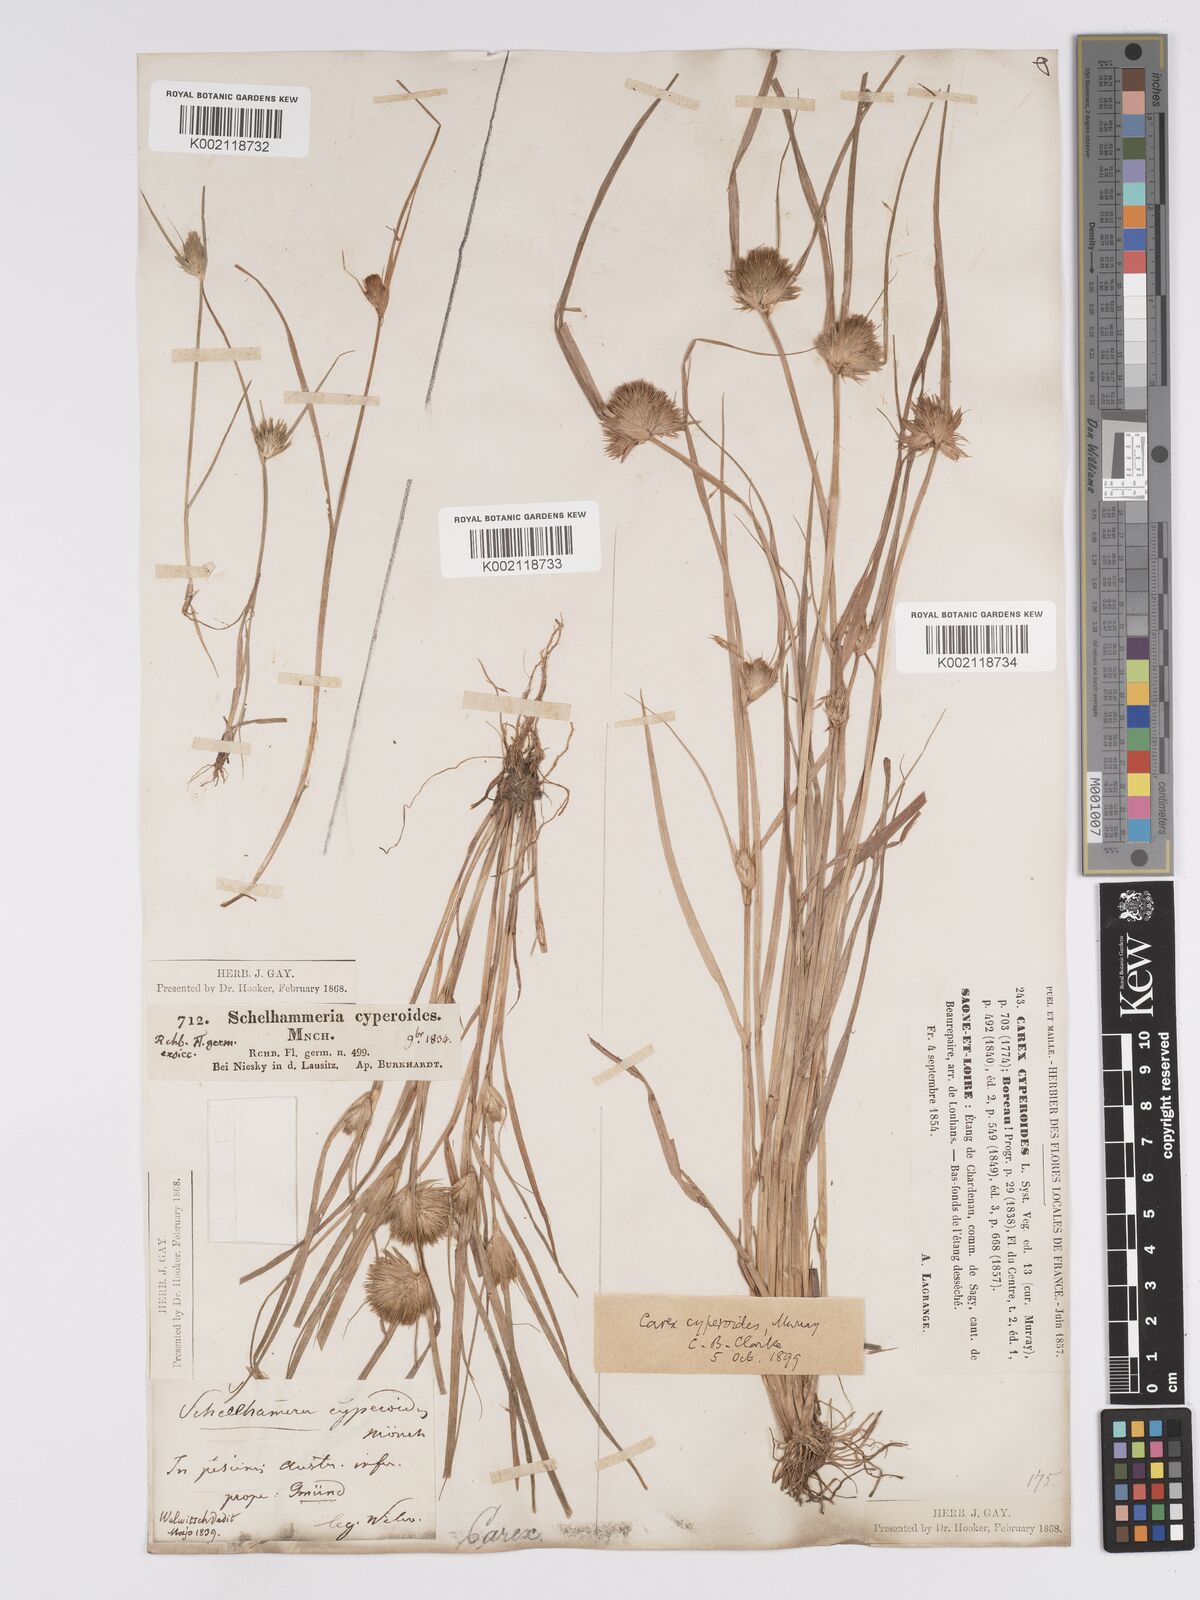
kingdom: Plantae
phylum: Tracheophyta
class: Liliopsida
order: Poales
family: Cyperaceae
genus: Carex
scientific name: Carex bohemica
